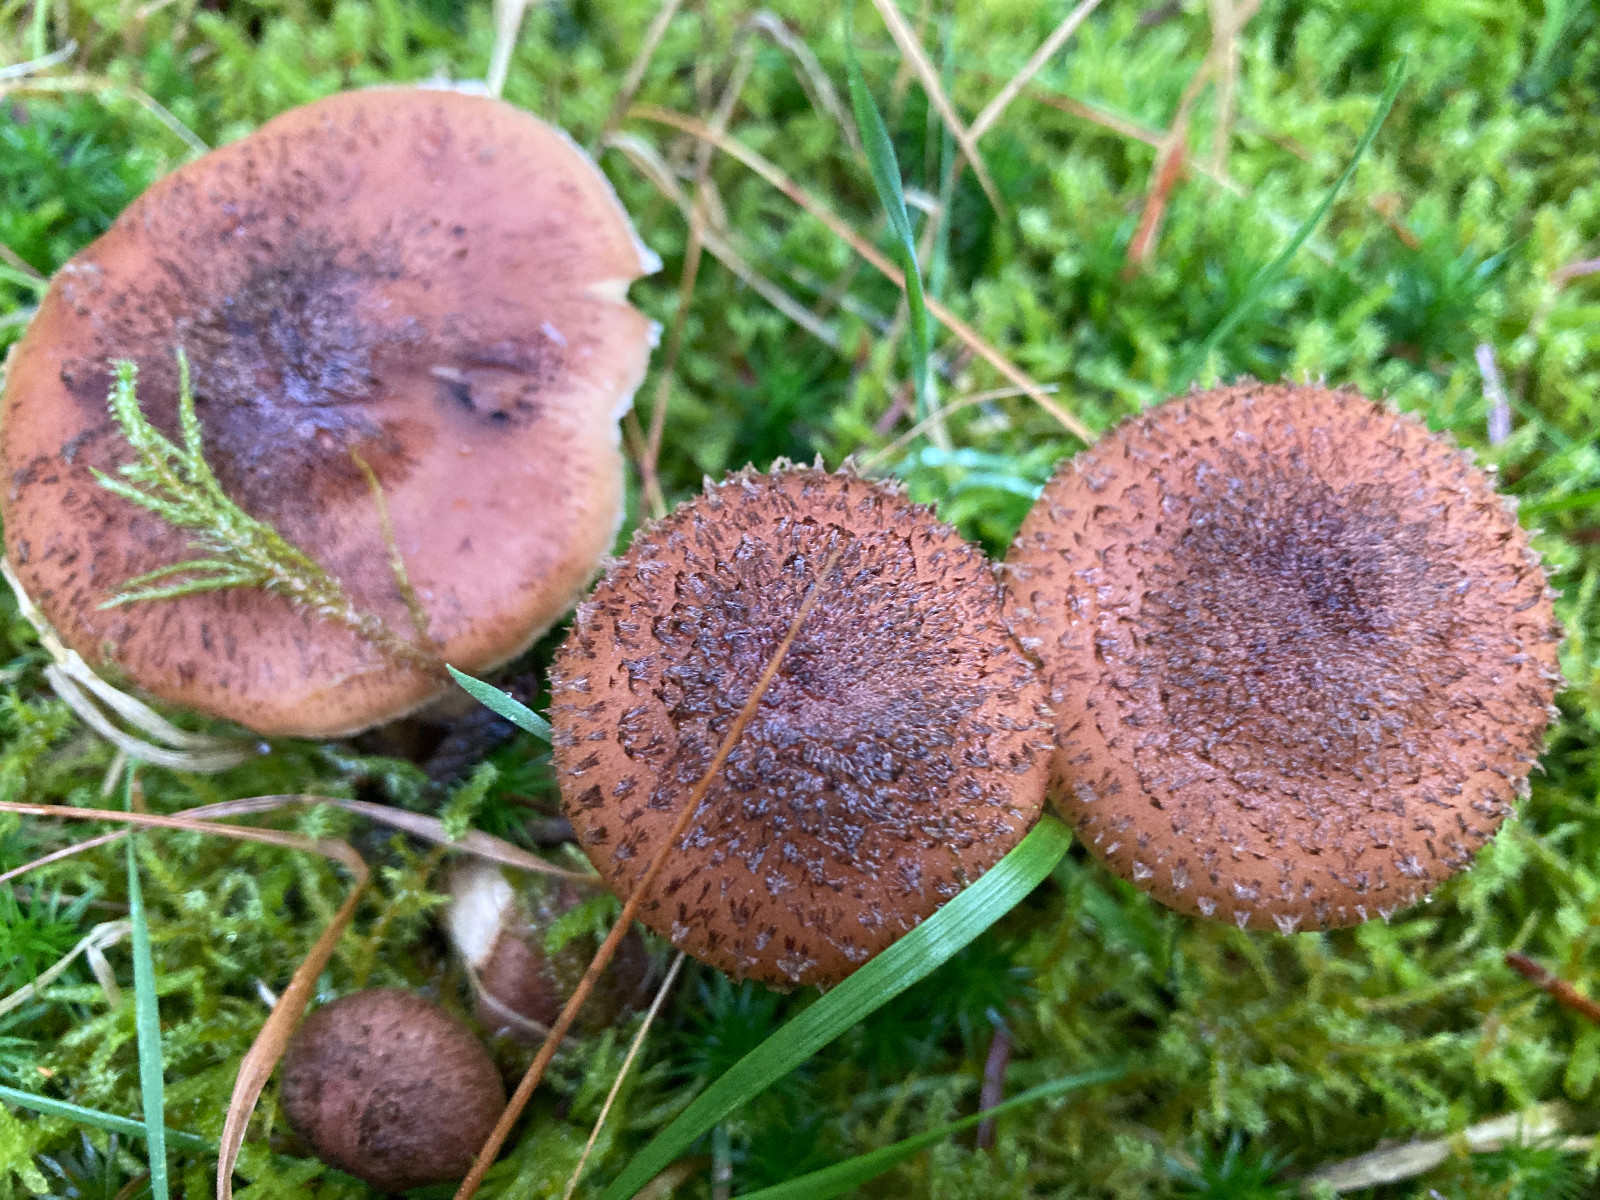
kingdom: Fungi
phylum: Basidiomycota
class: Agaricomycetes
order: Agaricales
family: Physalacriaceae
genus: Armillaria
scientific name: Armillaria ostoyae
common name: mørk honningsvamp
